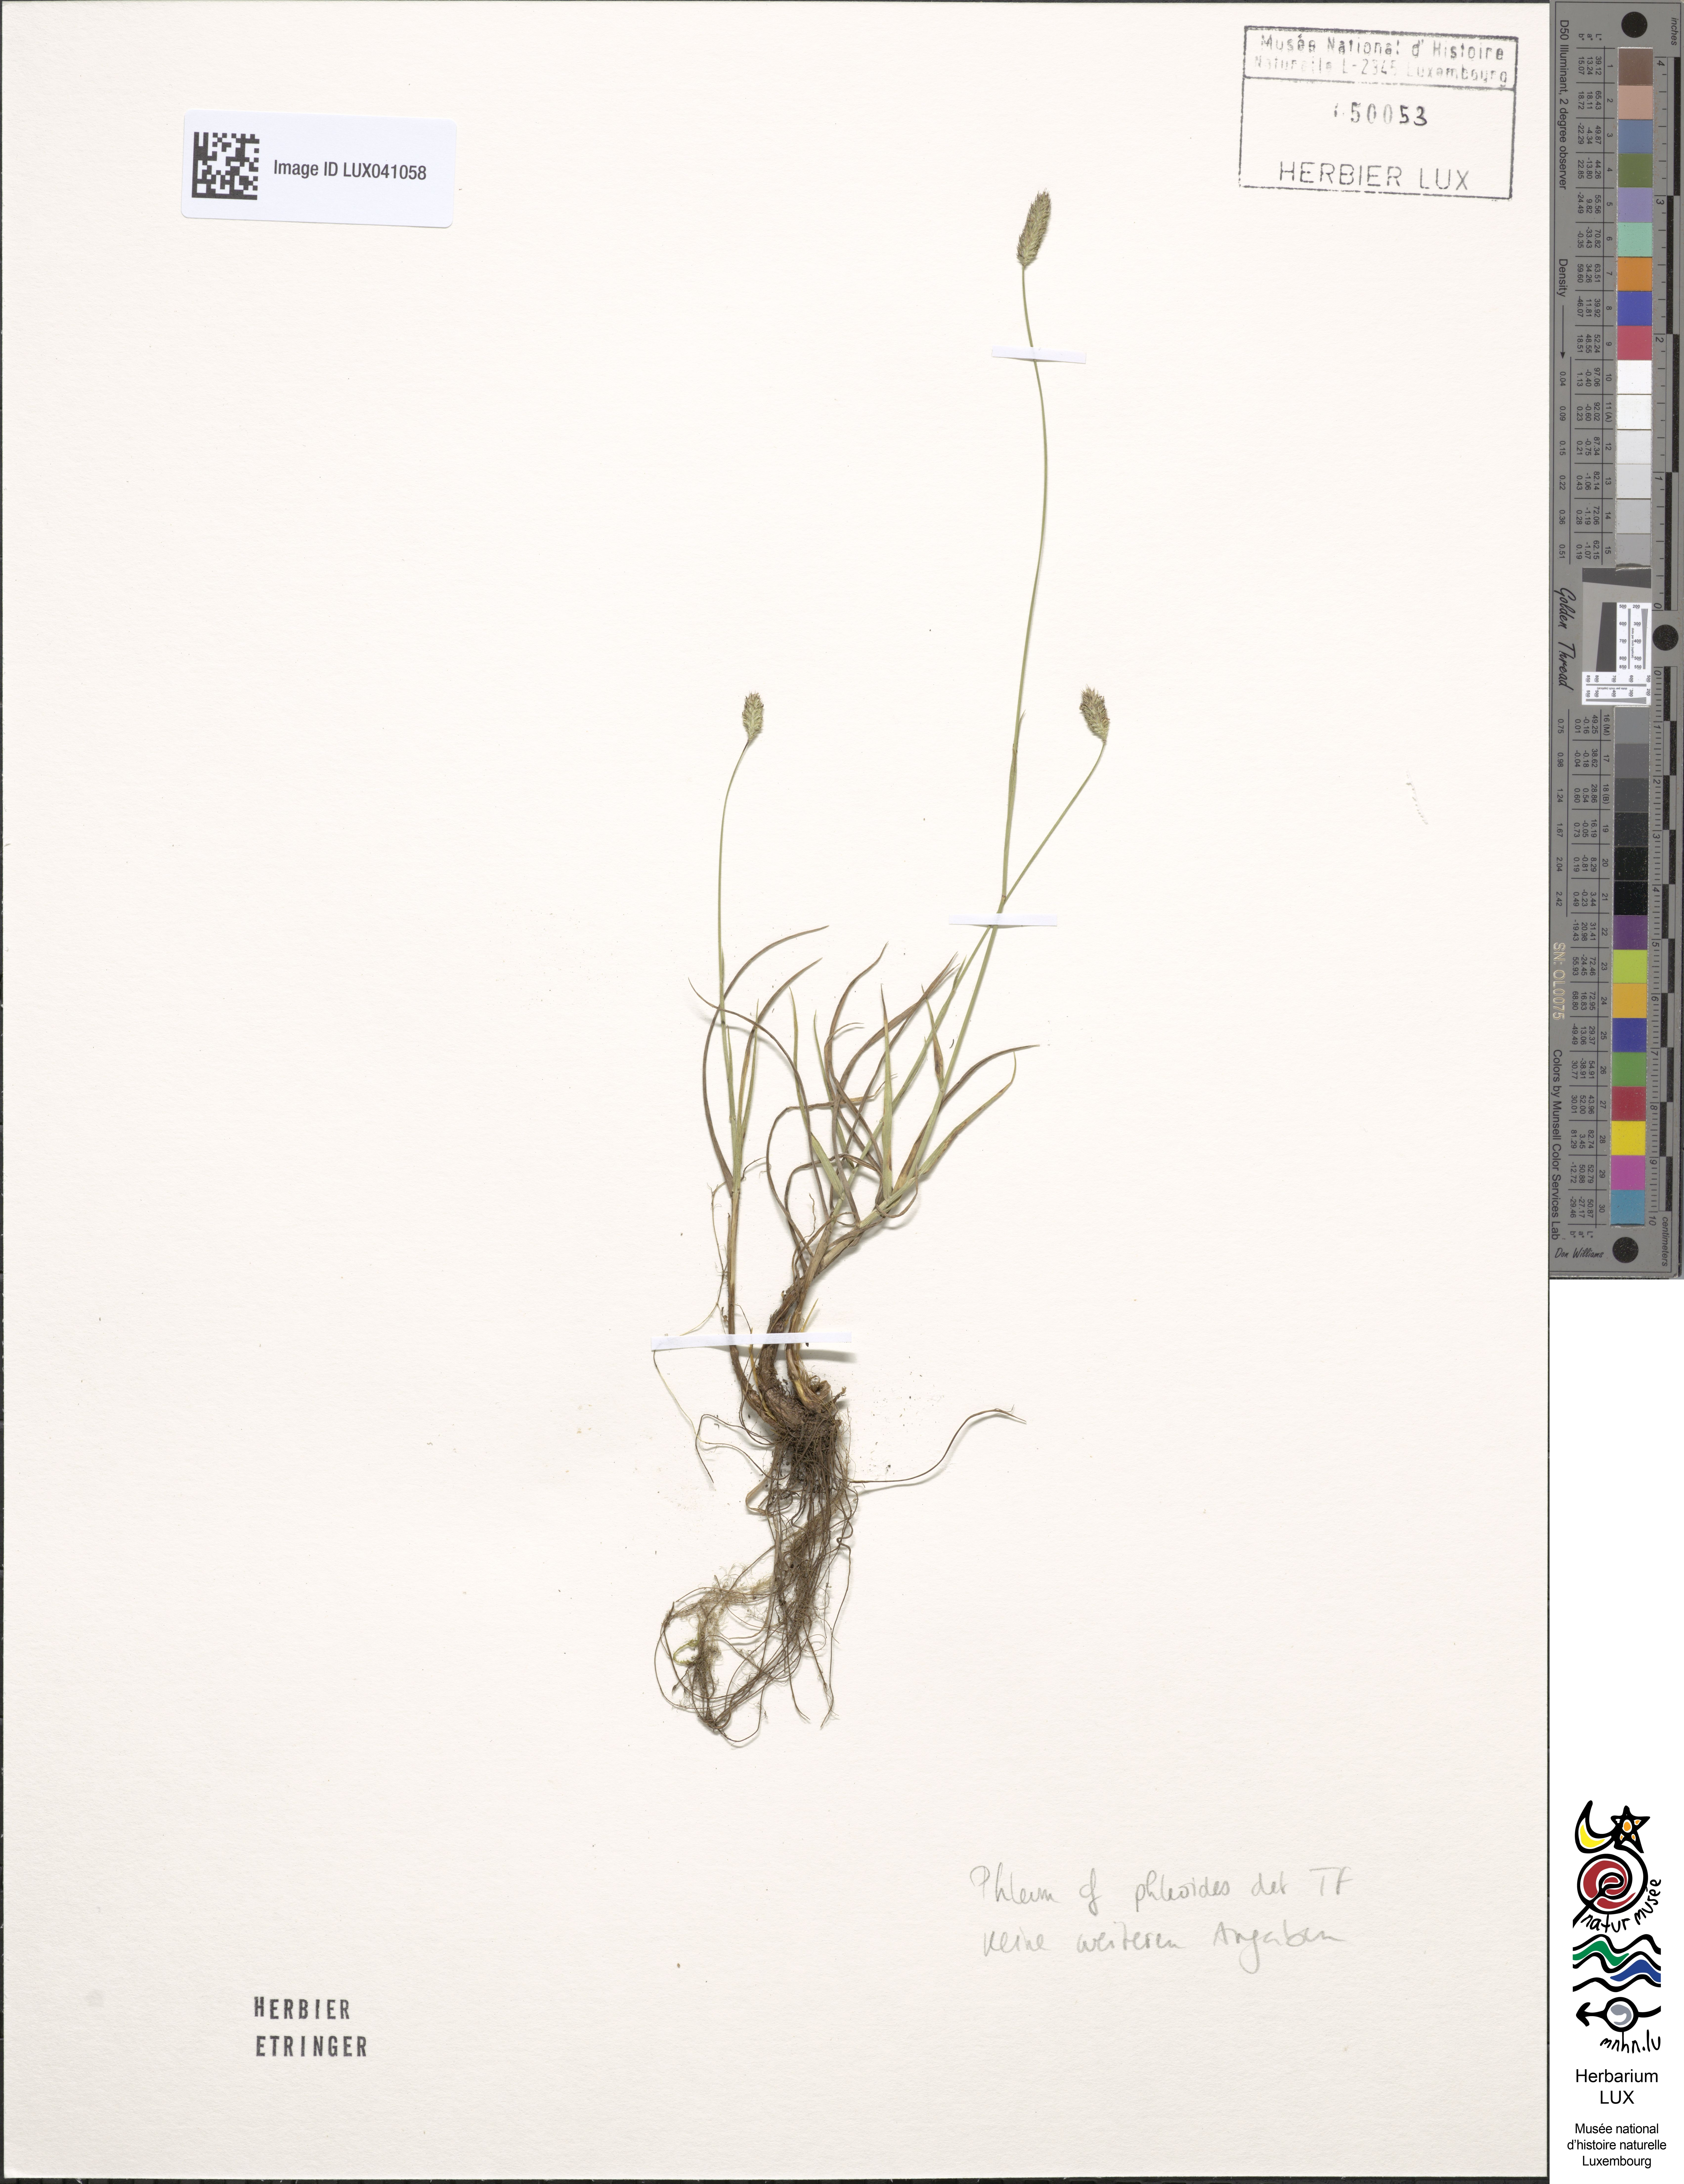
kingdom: Plantae
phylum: Tracheophyta
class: Liliopsida
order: Poales
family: Poaceae
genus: Phleum
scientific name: Phleum phleoides
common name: Purple-stem cat's-tail
